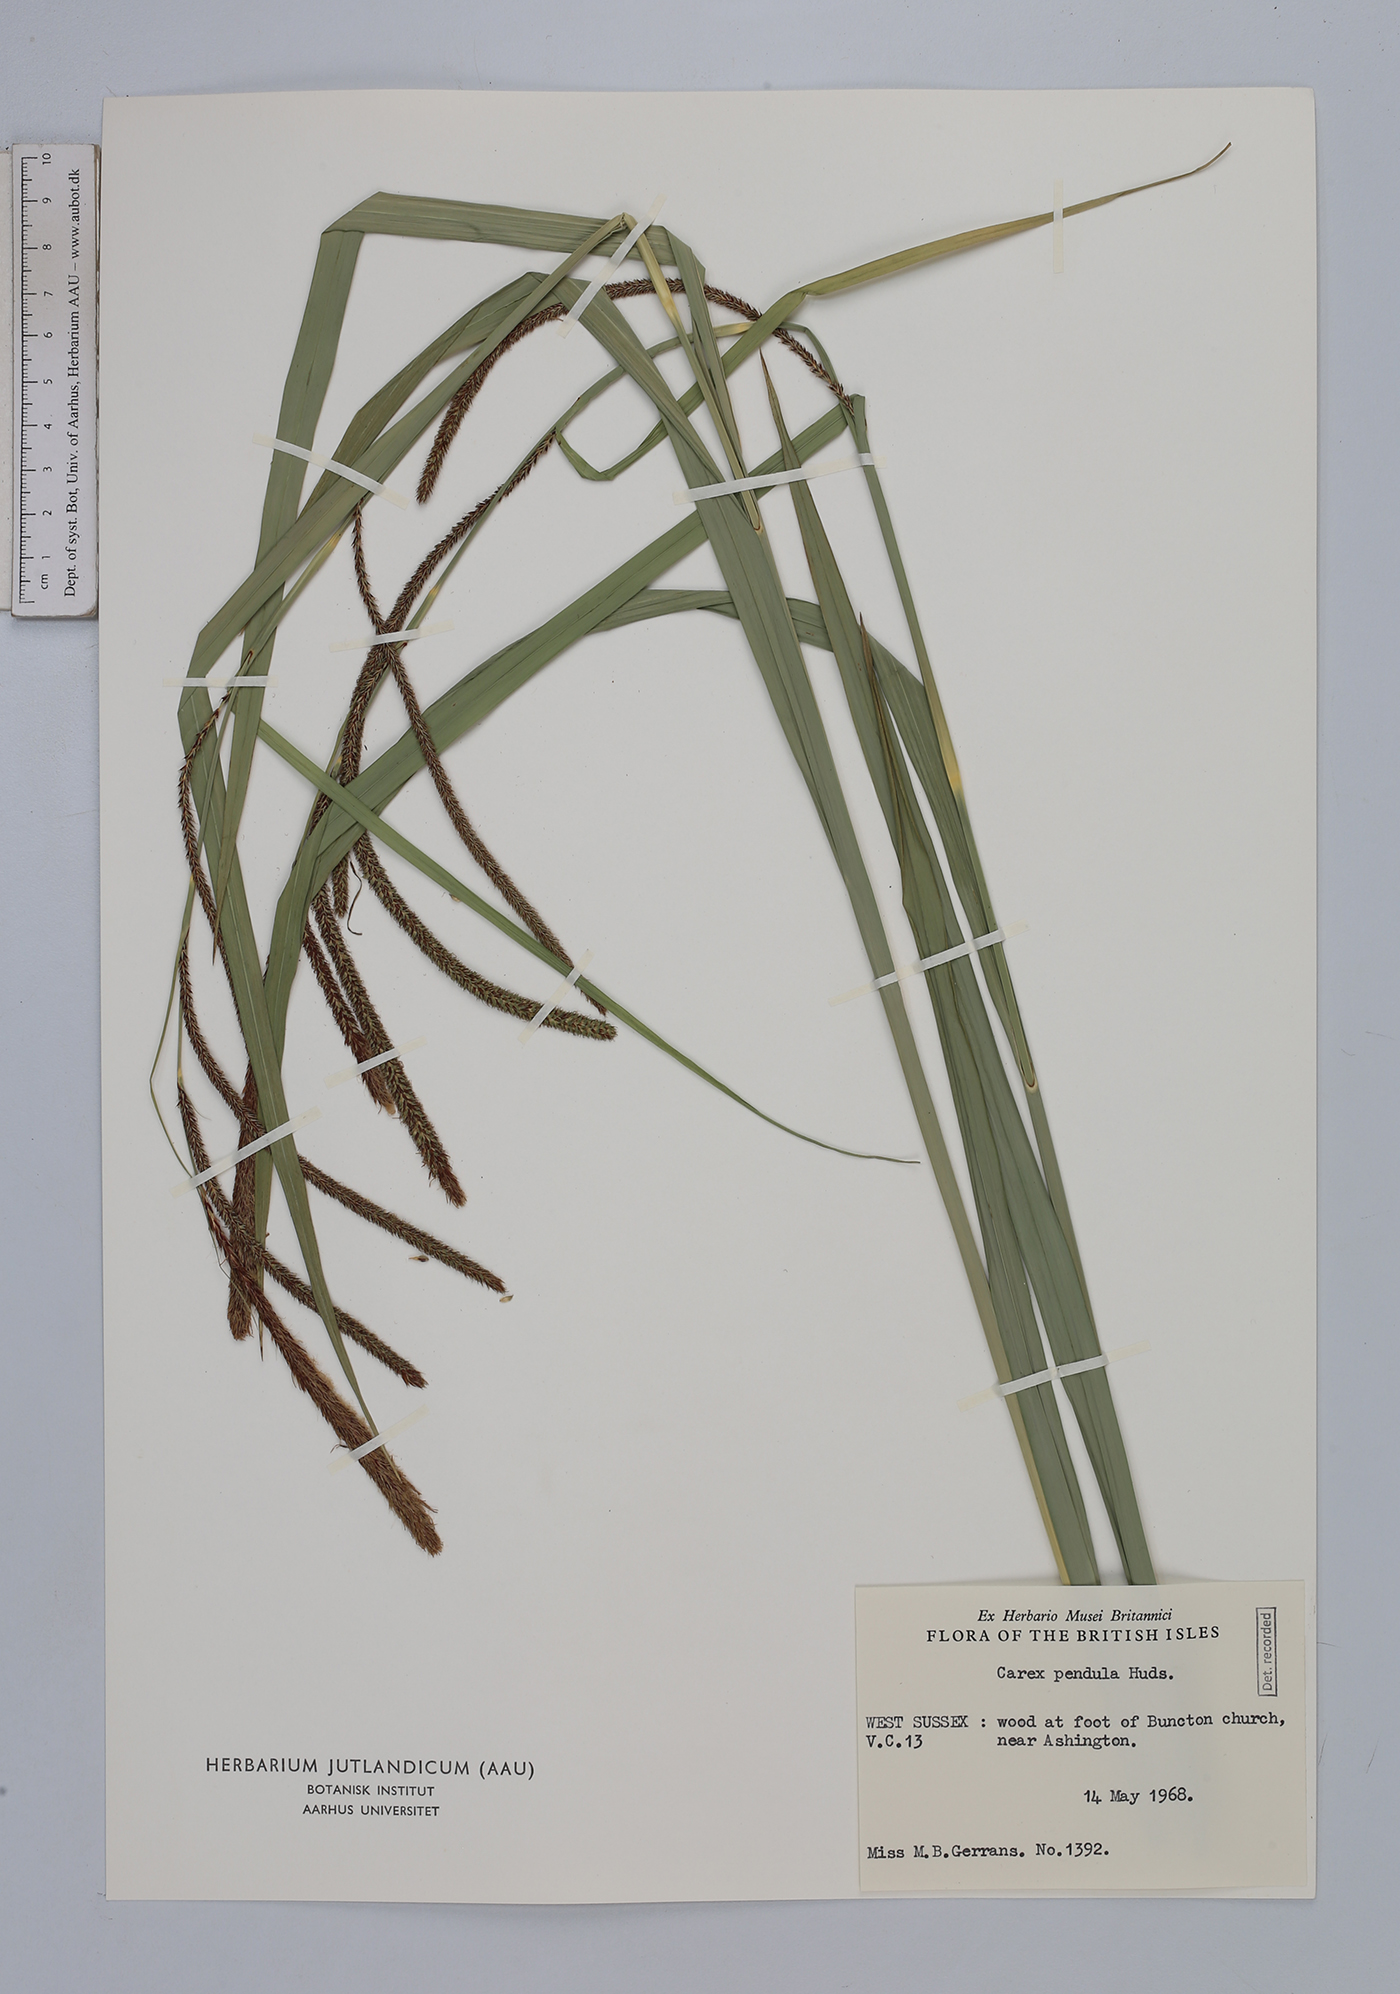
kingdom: Plantae
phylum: Tracheophyta
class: Liliopsida
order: Poales
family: Cyperaceae
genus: Carex
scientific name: Carex pendula
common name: Pendulous sedge
